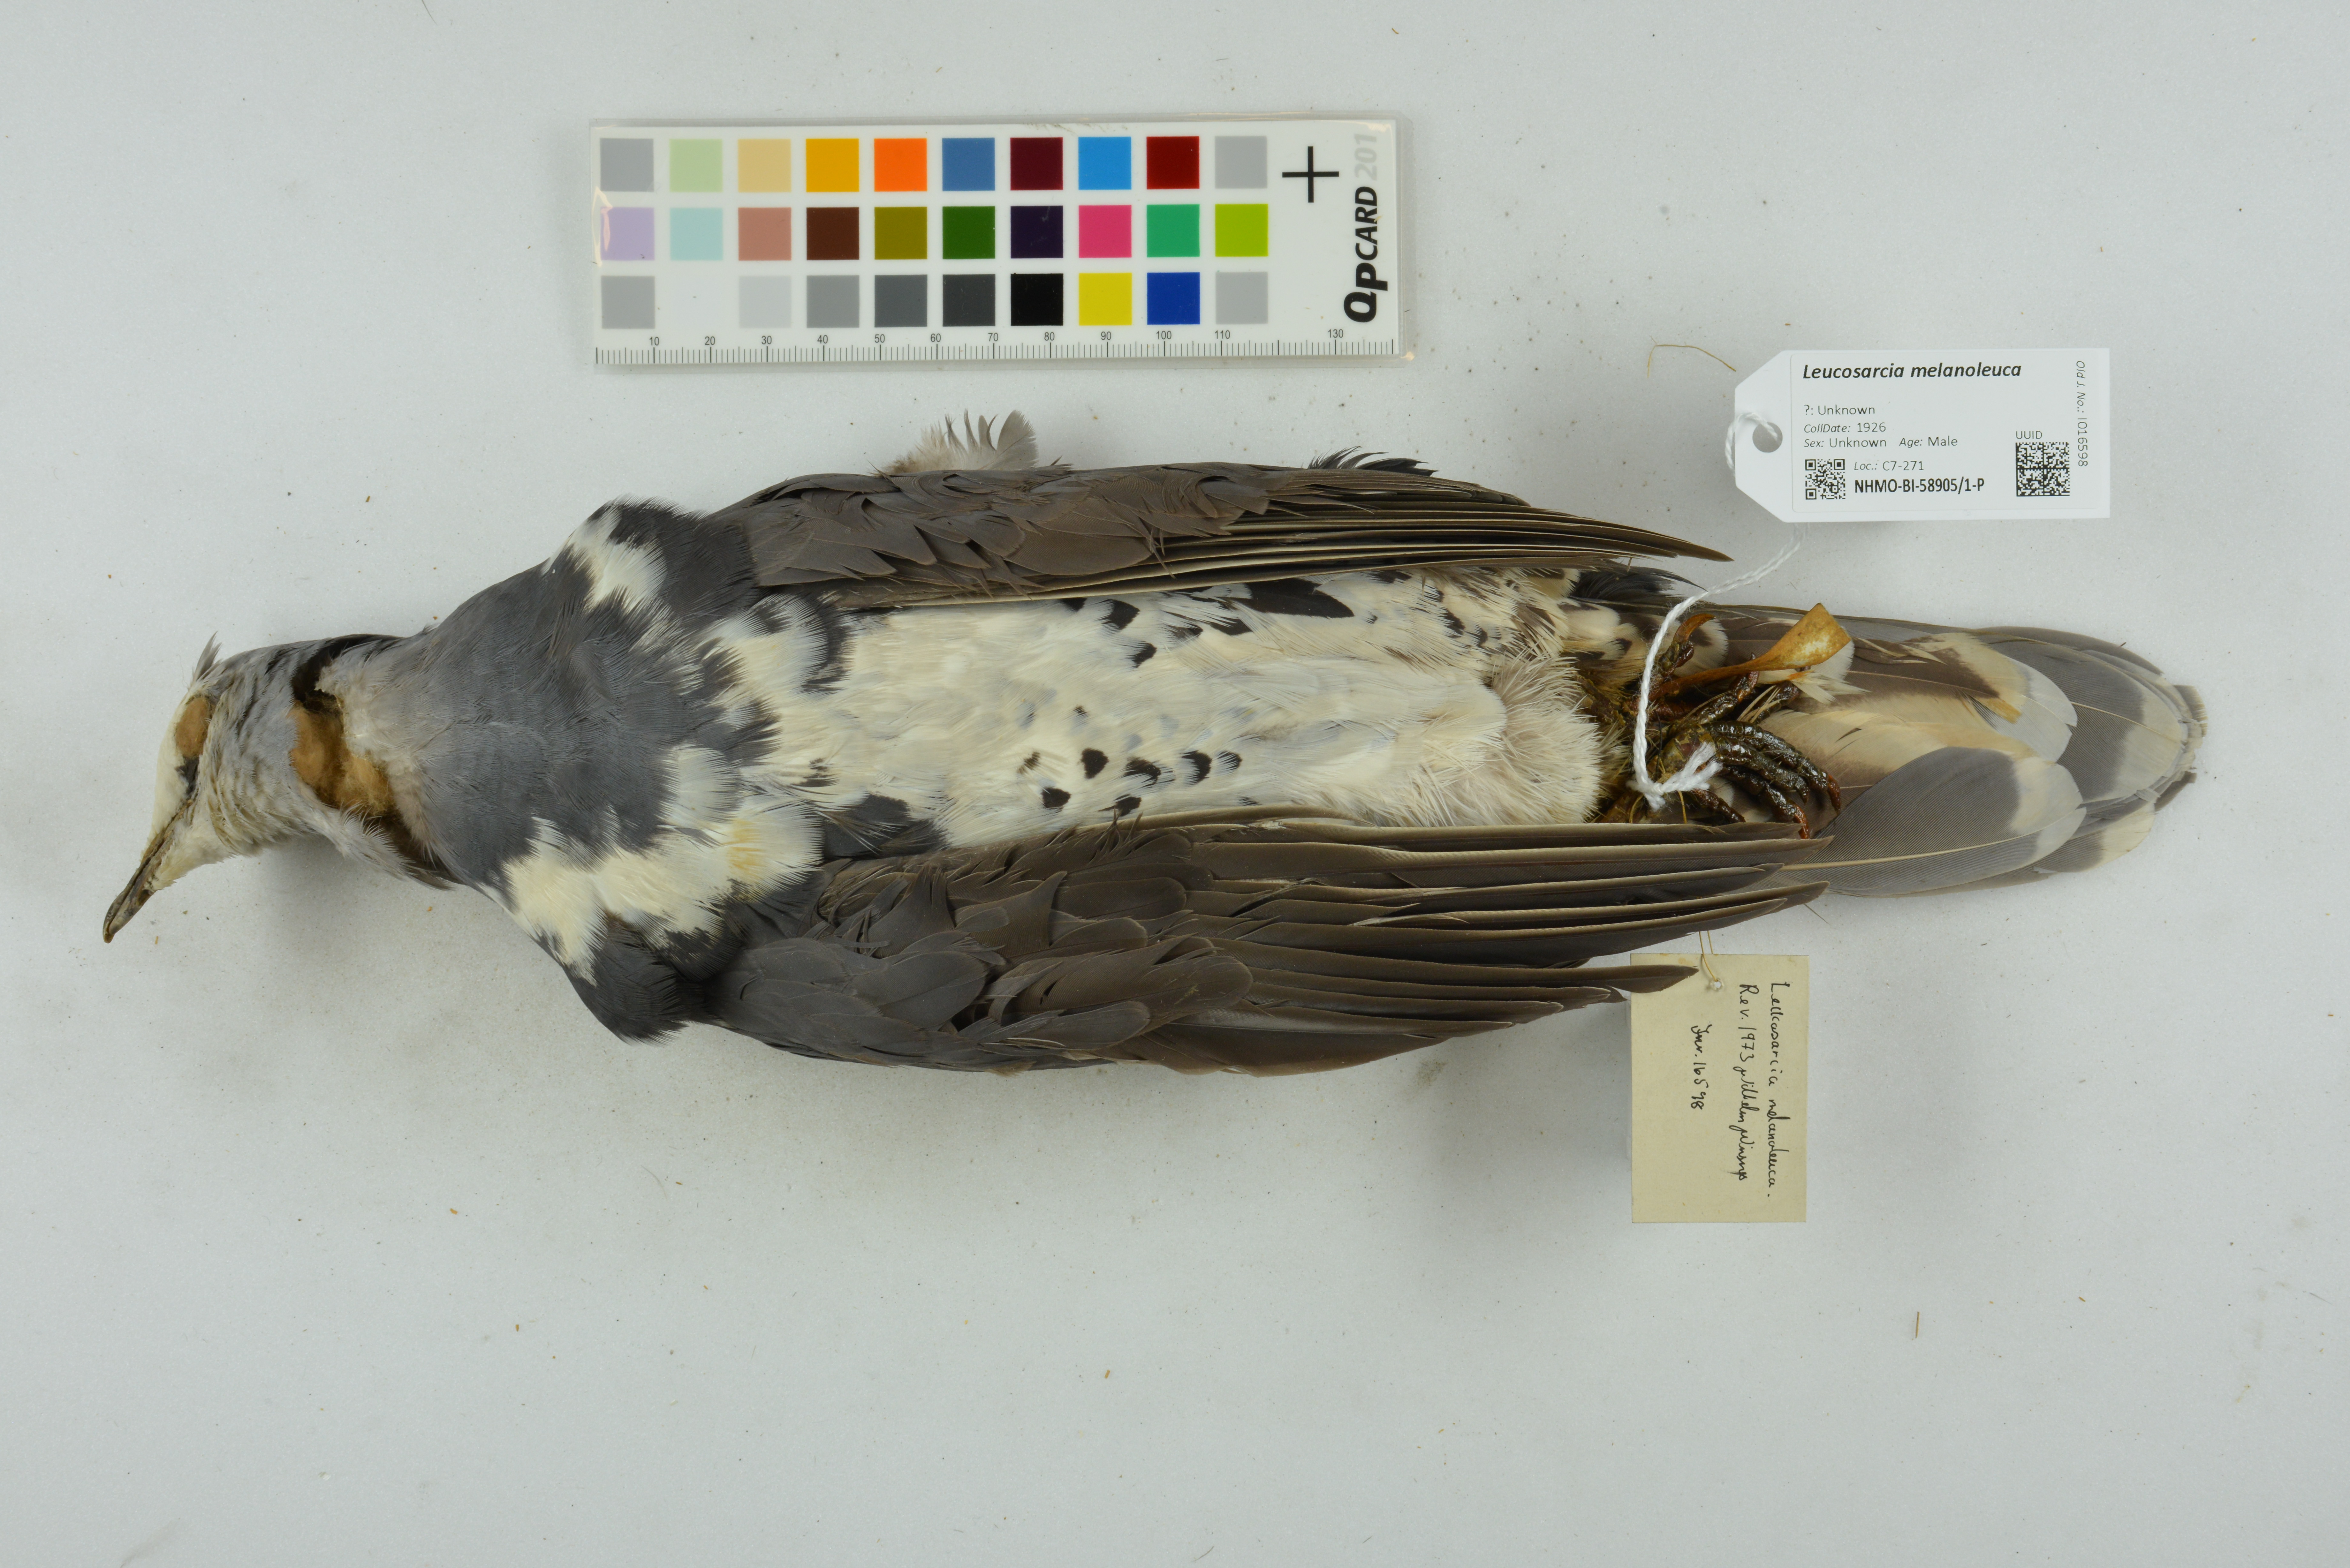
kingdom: Animalia
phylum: Chordata
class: Aves
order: Columbiformes
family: Columbidae
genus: Leucosarcia
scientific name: Leucosarcia melanoleuca
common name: Wonga pigeon
